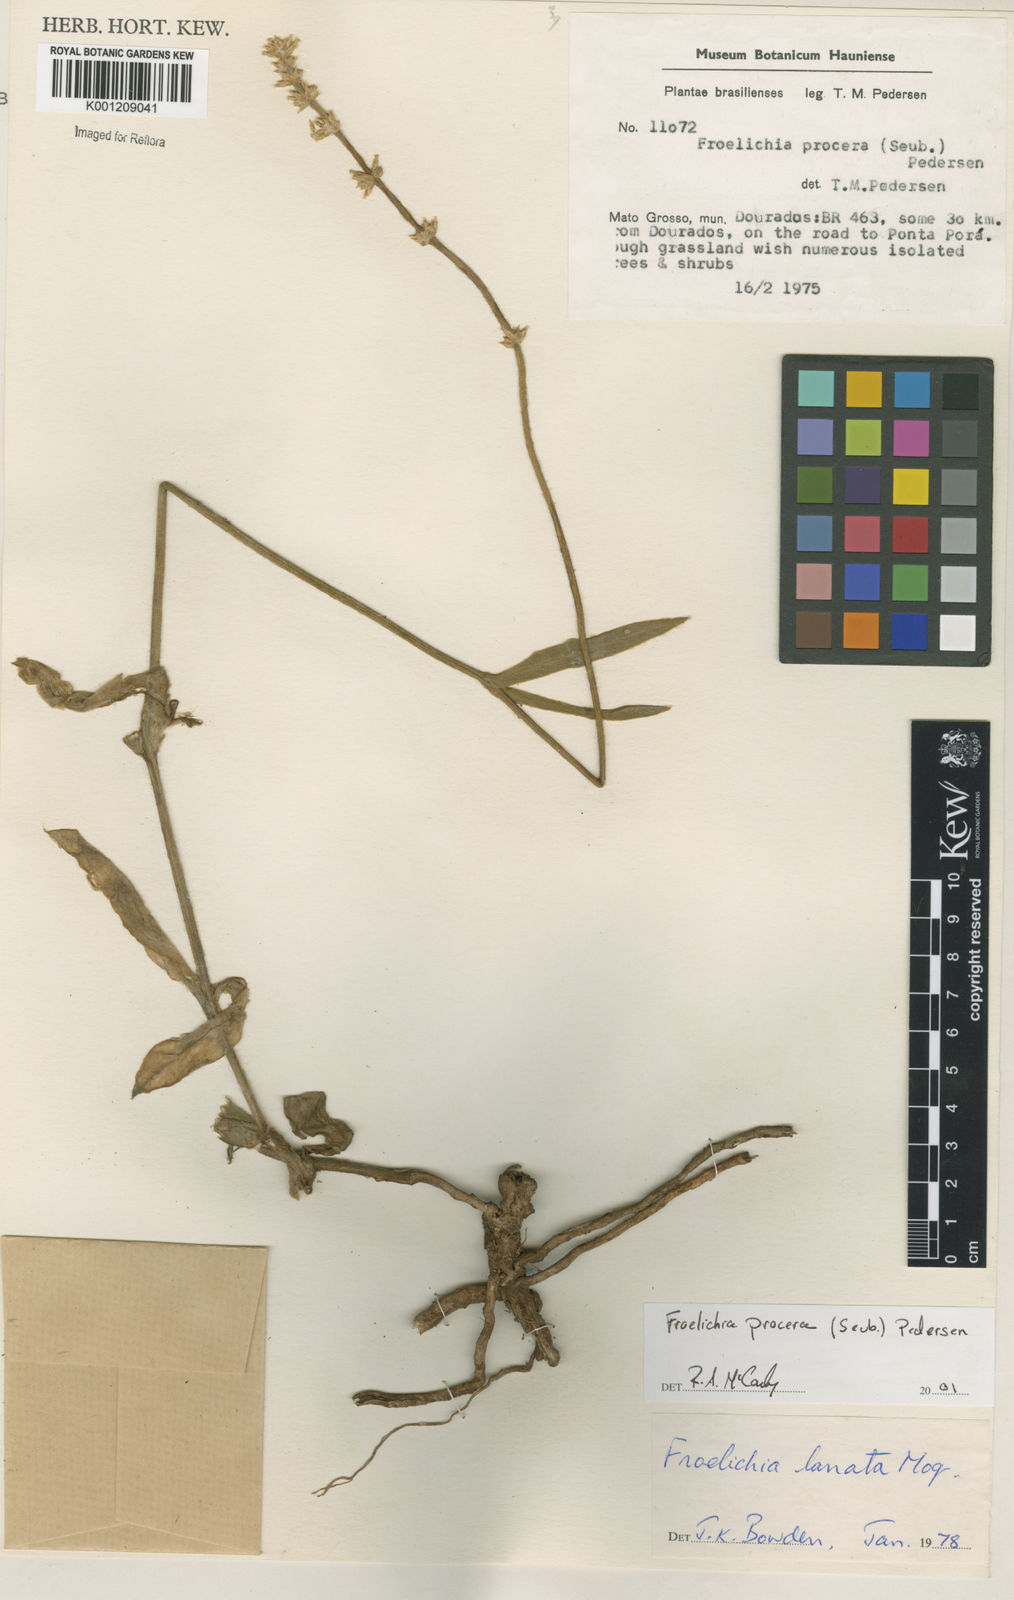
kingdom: Plantae
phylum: Tracheophyta
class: Magnoliopsida
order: Caryophyllales
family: Amaranthaceae
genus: Froelichia
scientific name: Froelichia procera
